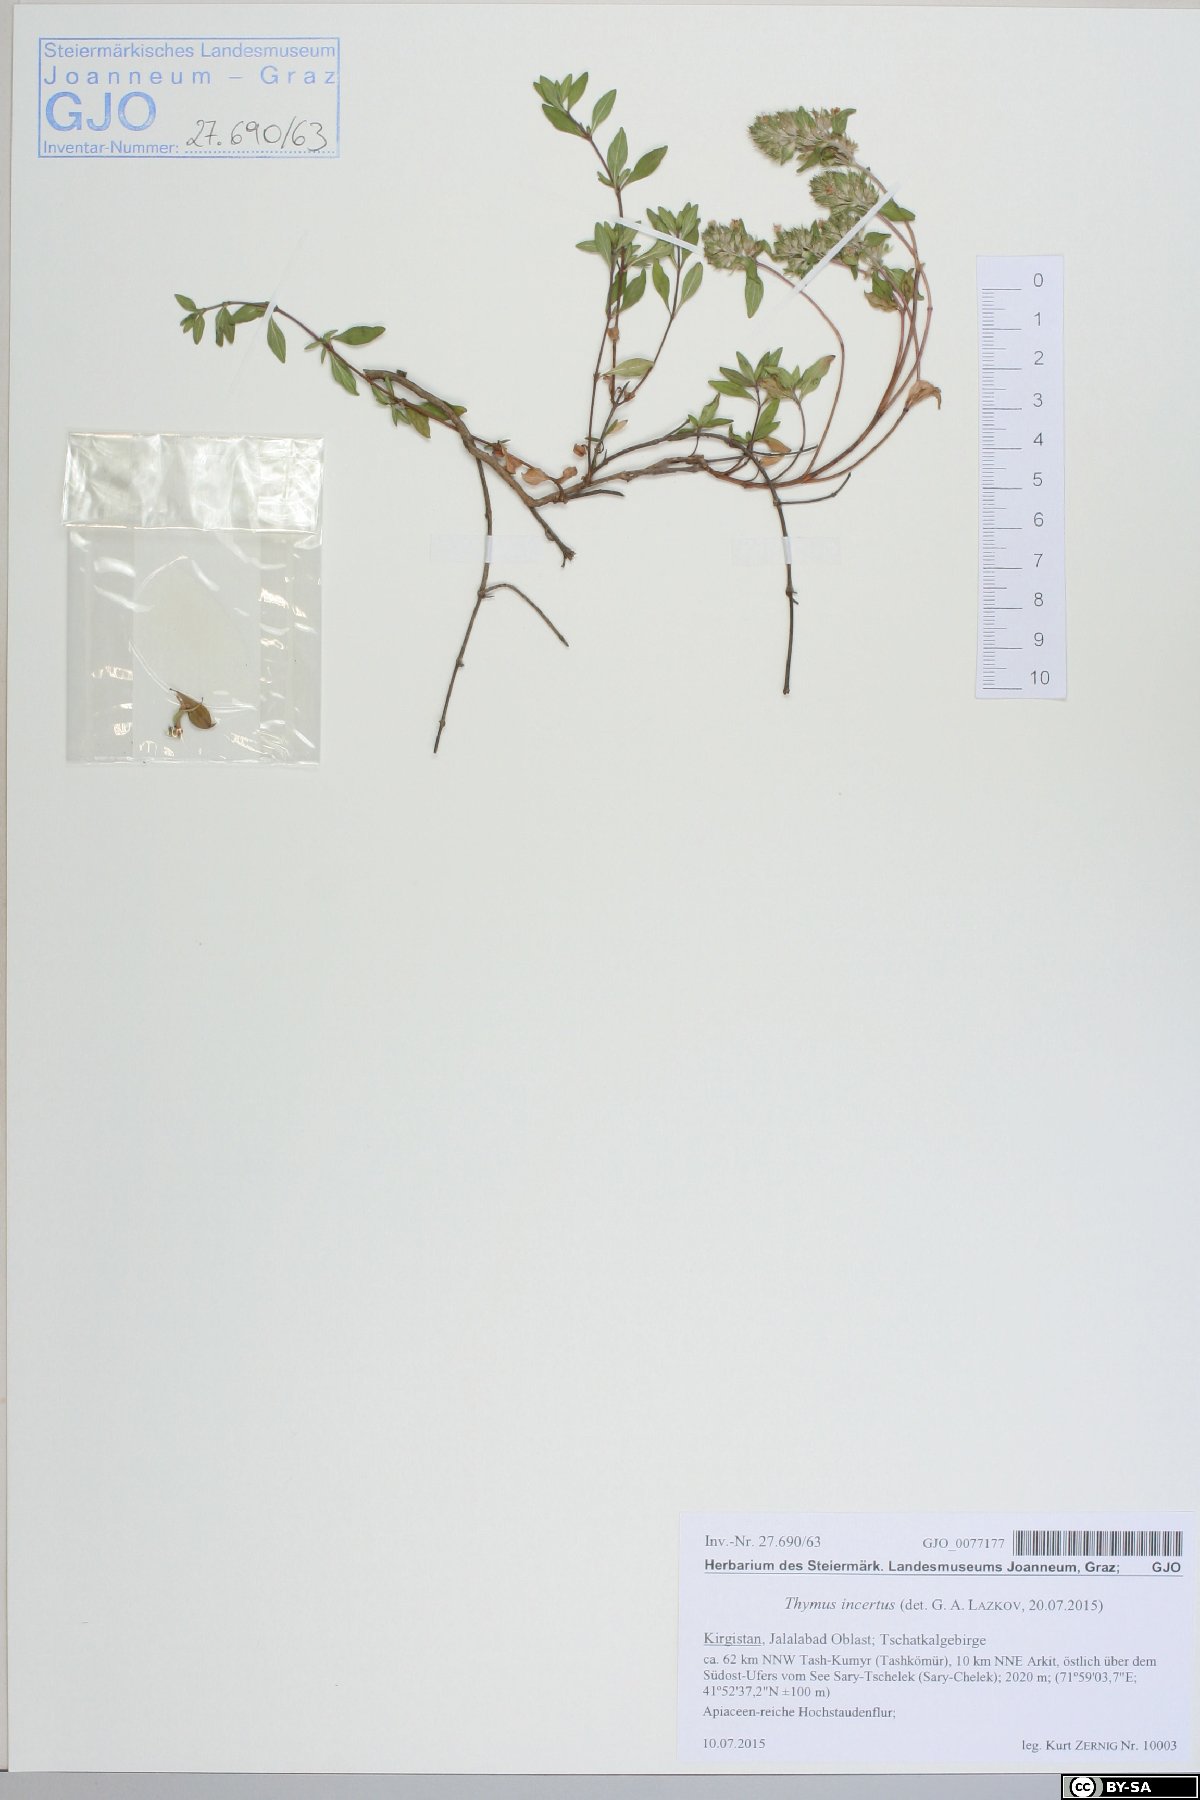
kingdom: Plantae
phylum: Tracheophyta
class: Magnoliopsida
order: Lamiales
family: Lamiaceae
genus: Thymus
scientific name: Thymus incertus
